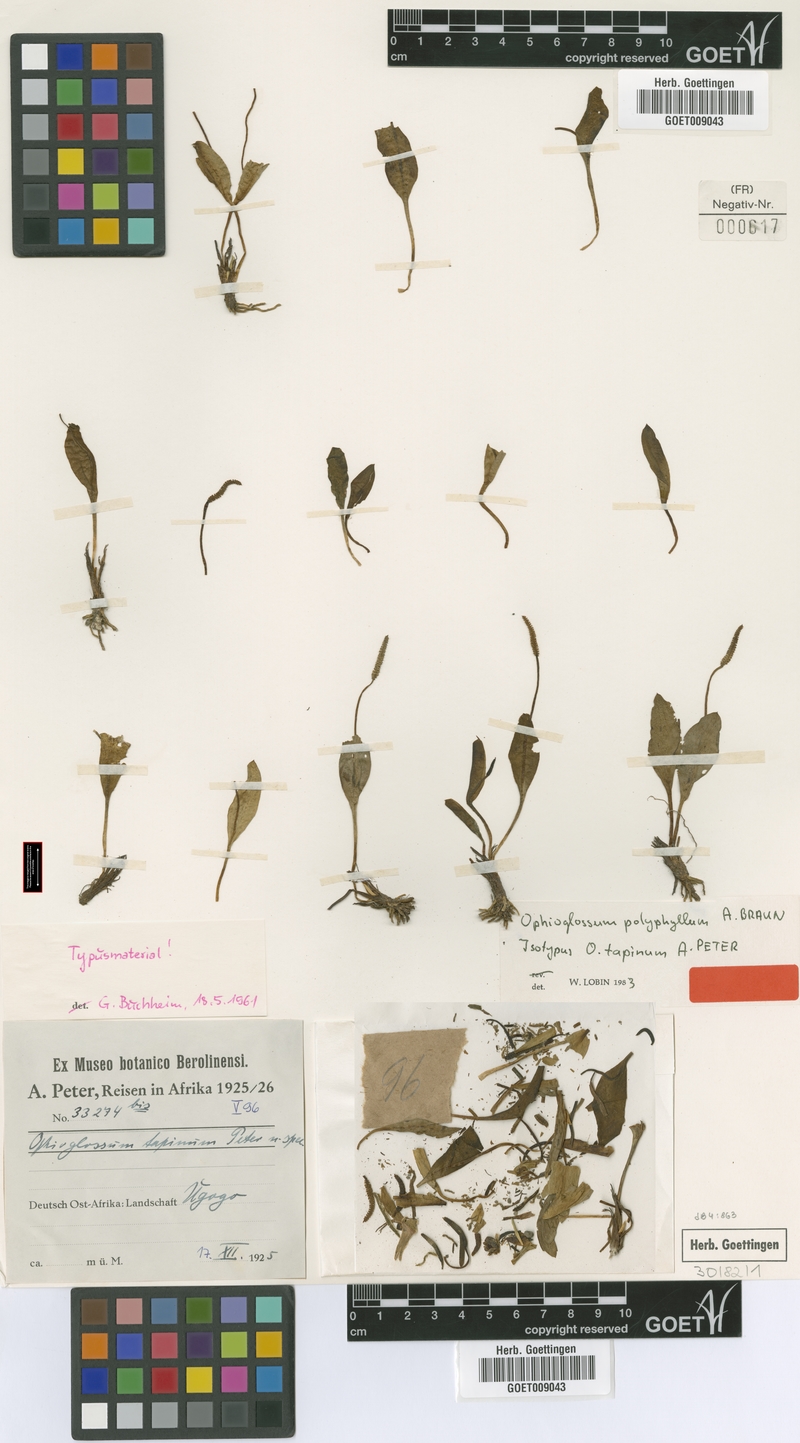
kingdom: Plantae
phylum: Tracheophyta
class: Polypodiopsida
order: Ophioglossales
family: Ophioglossaceae
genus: Ophioglossum
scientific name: Ophioglossum polyphyllum
